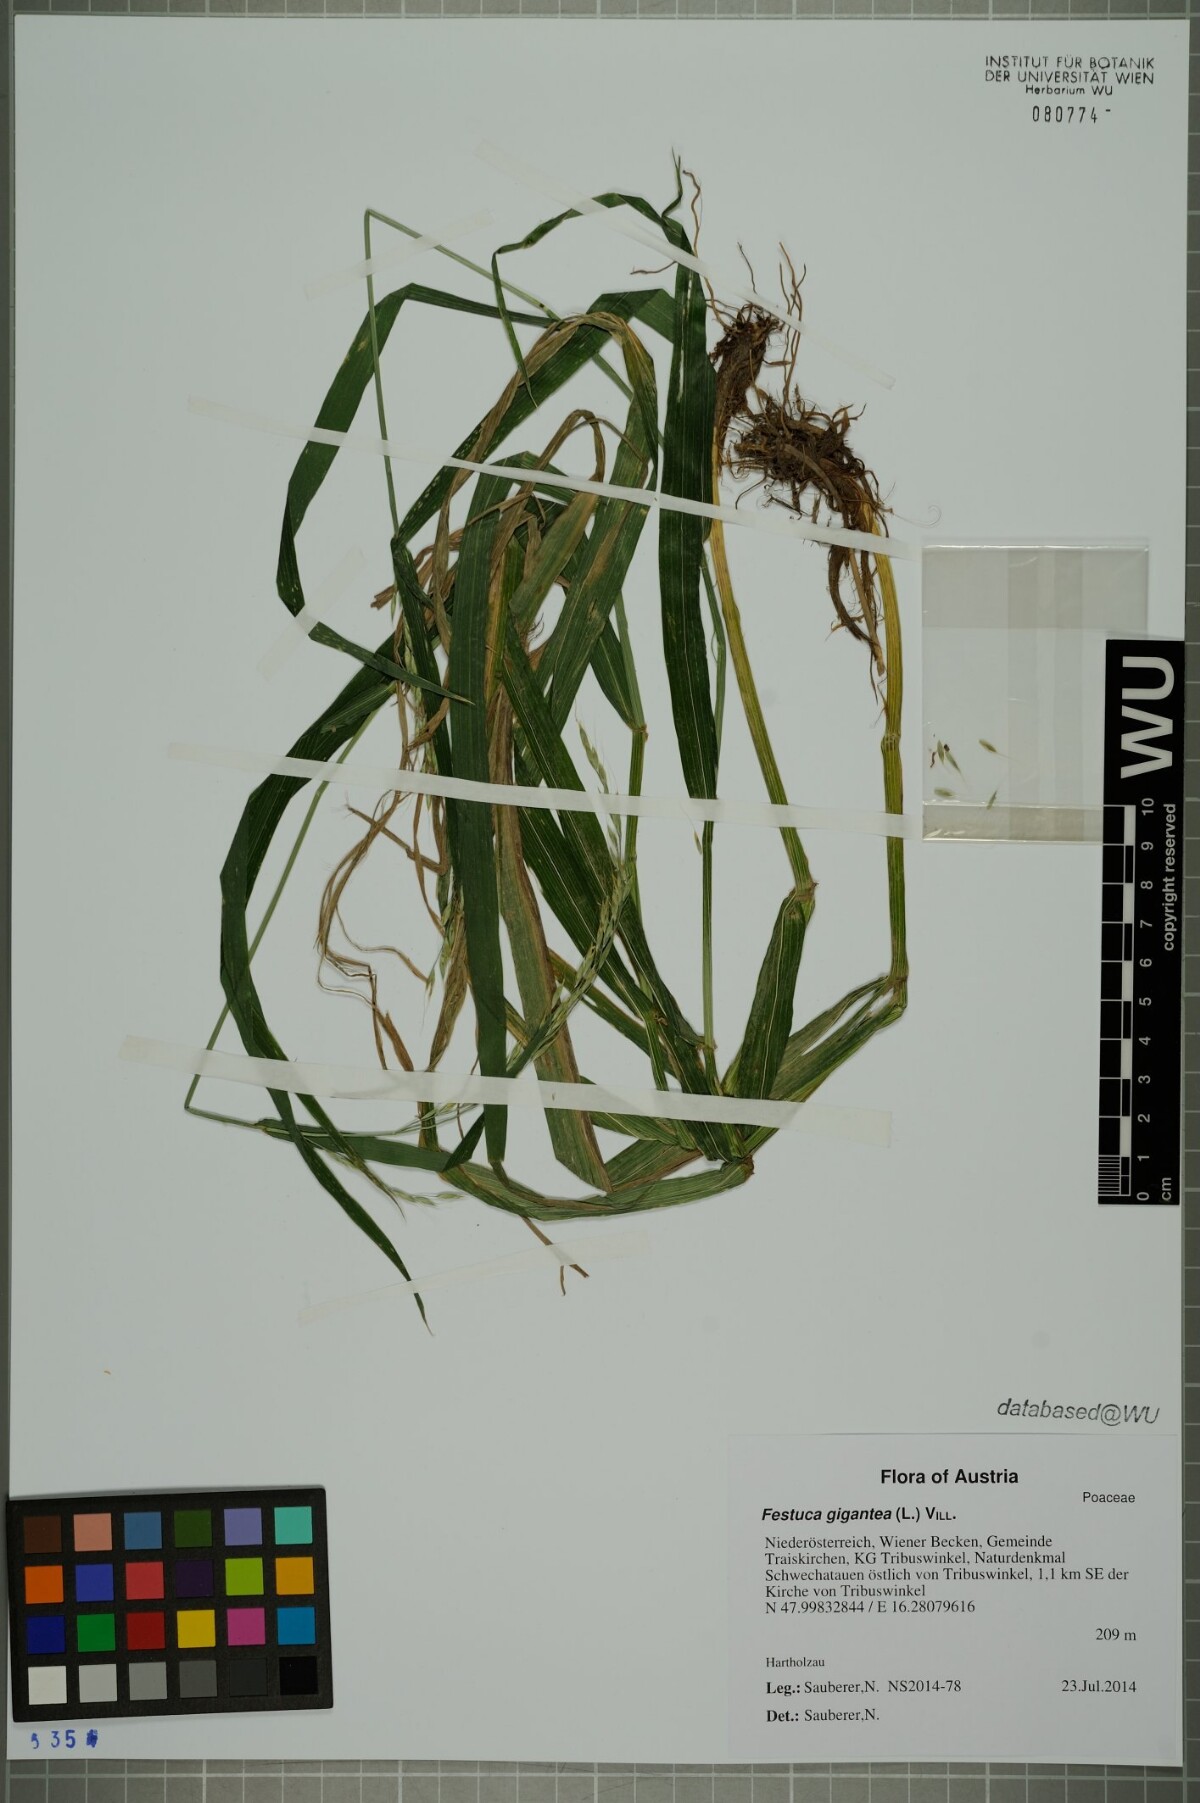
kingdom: Plantae
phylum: Tracheophyta
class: Liliopsida
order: Poales
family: Poaceae
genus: Lolium
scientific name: Lolium giganteum
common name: Giant fescue
